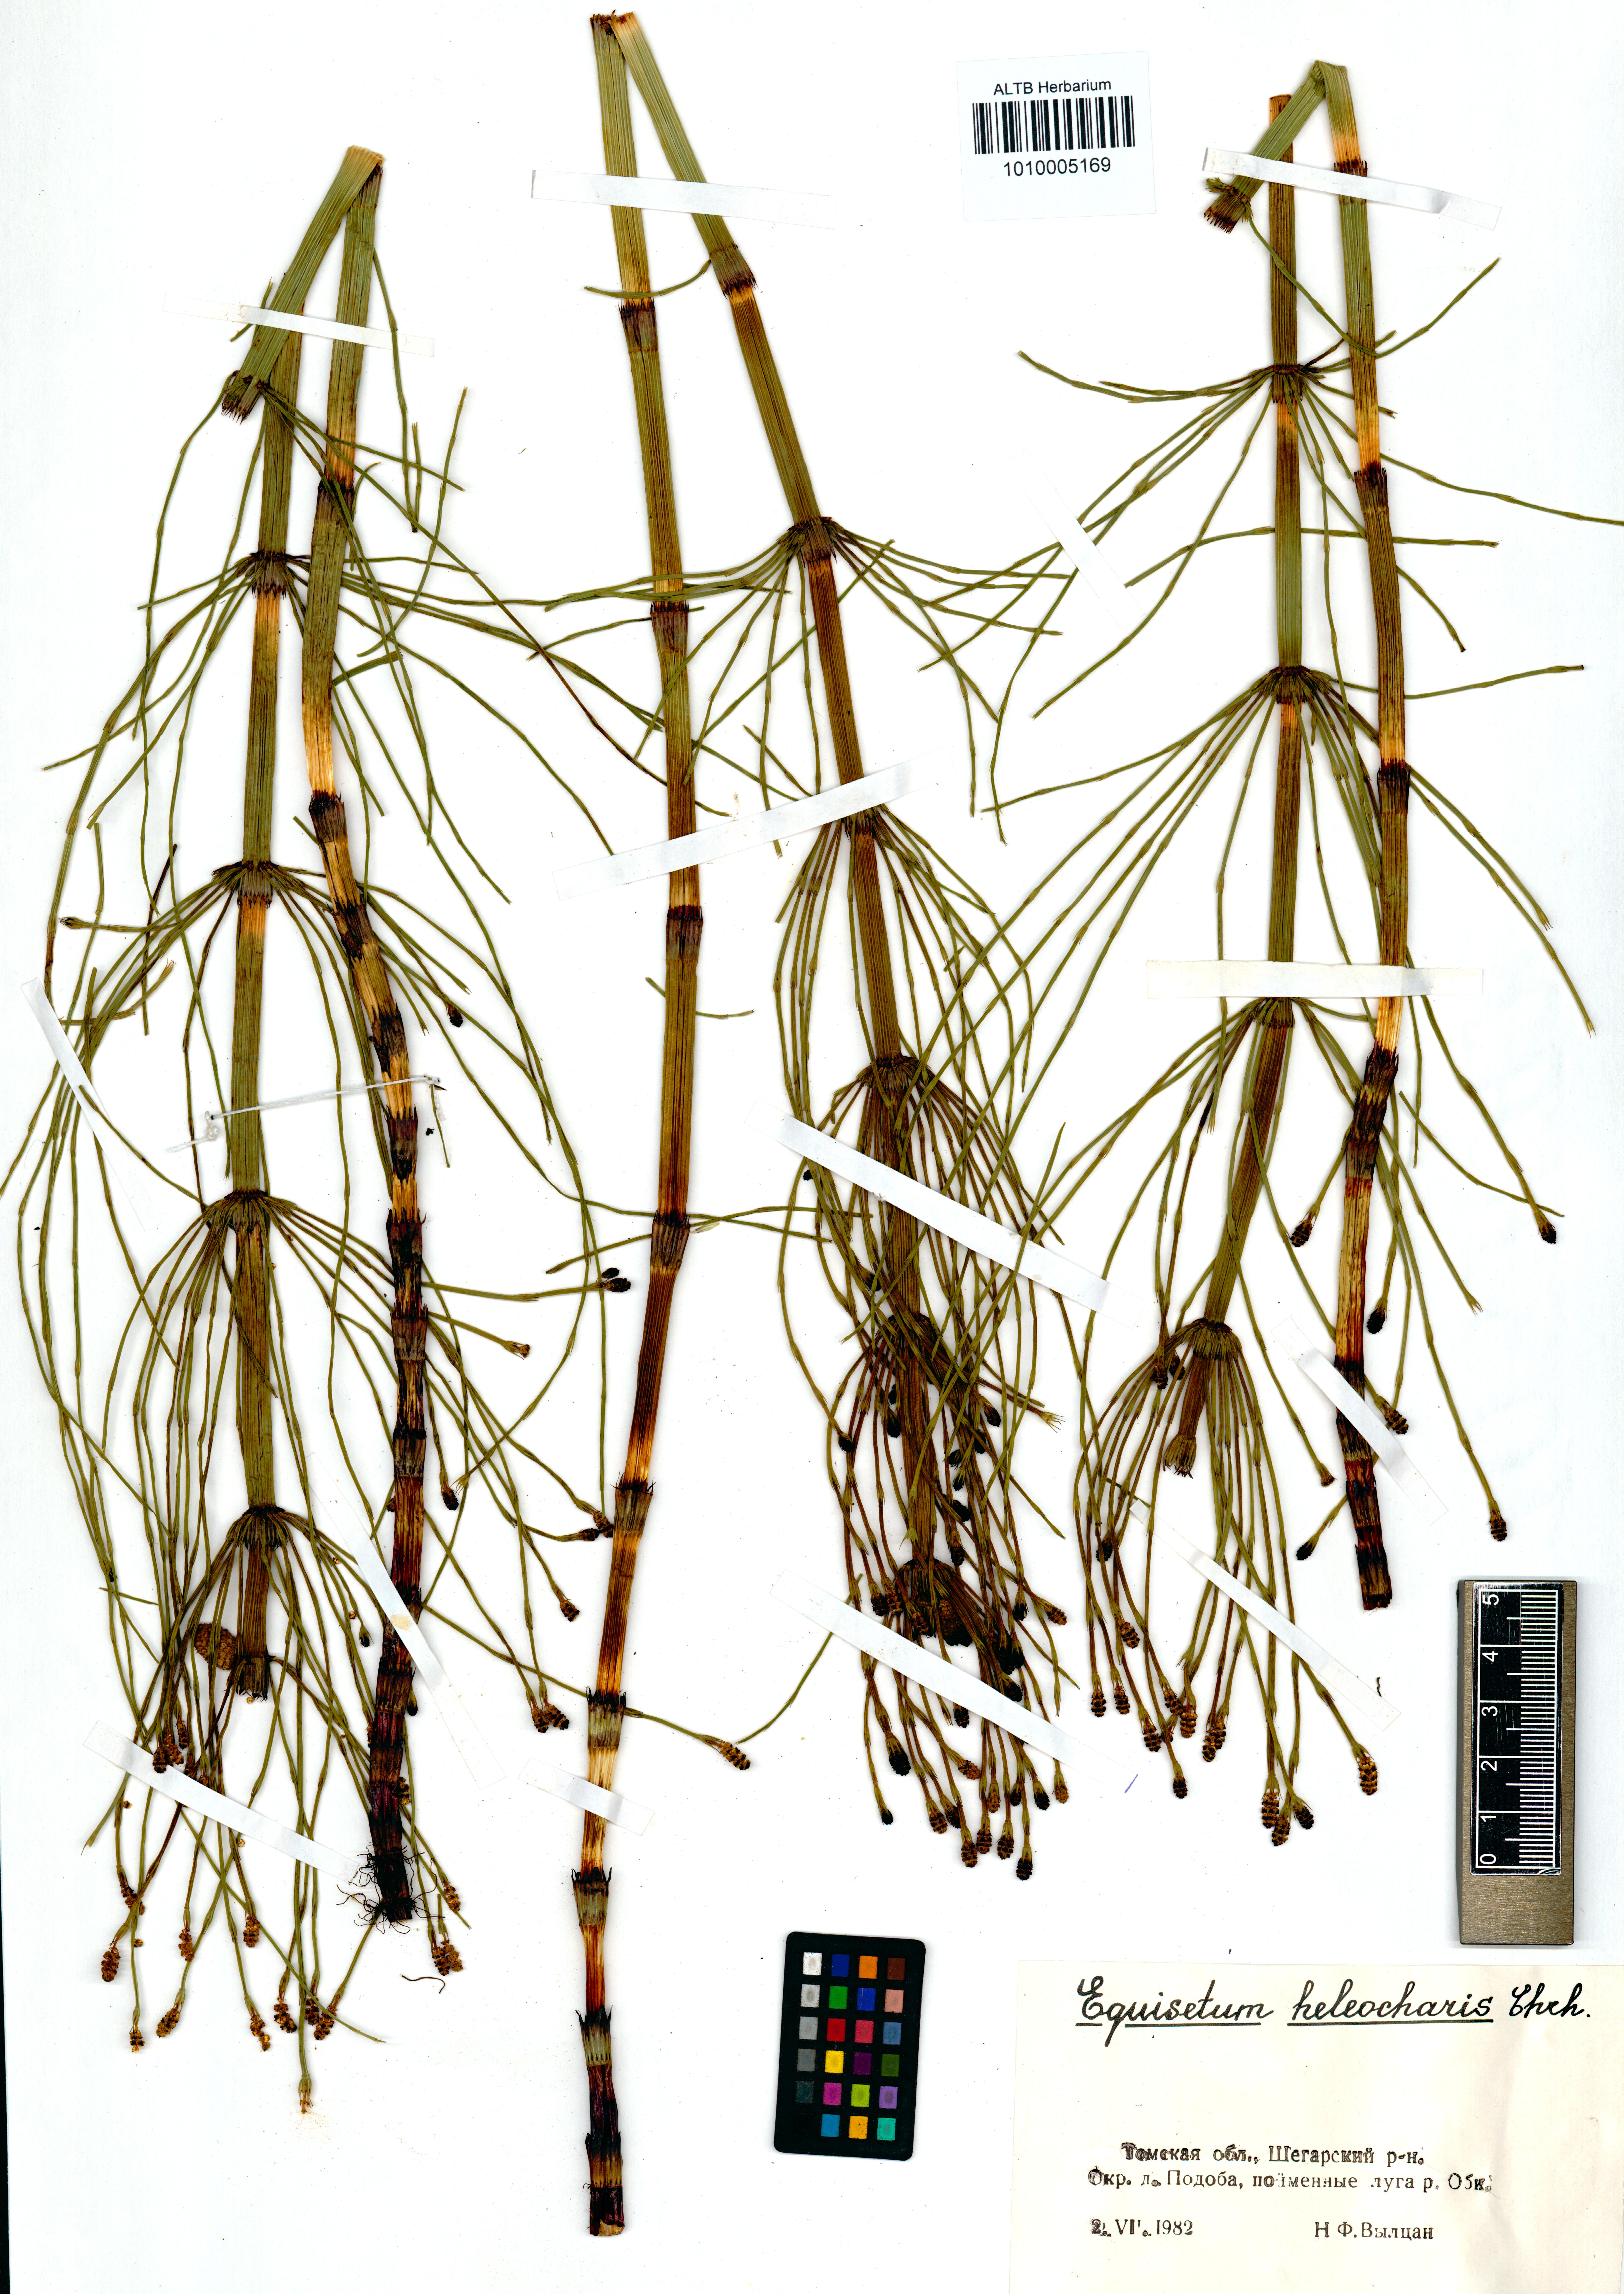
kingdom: Plantae
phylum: Tracheophyta
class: Polypodiopsida
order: Equisetales
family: Equisetaceae
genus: Equisetum
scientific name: Equisetum fluviatile
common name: Water horsetail
